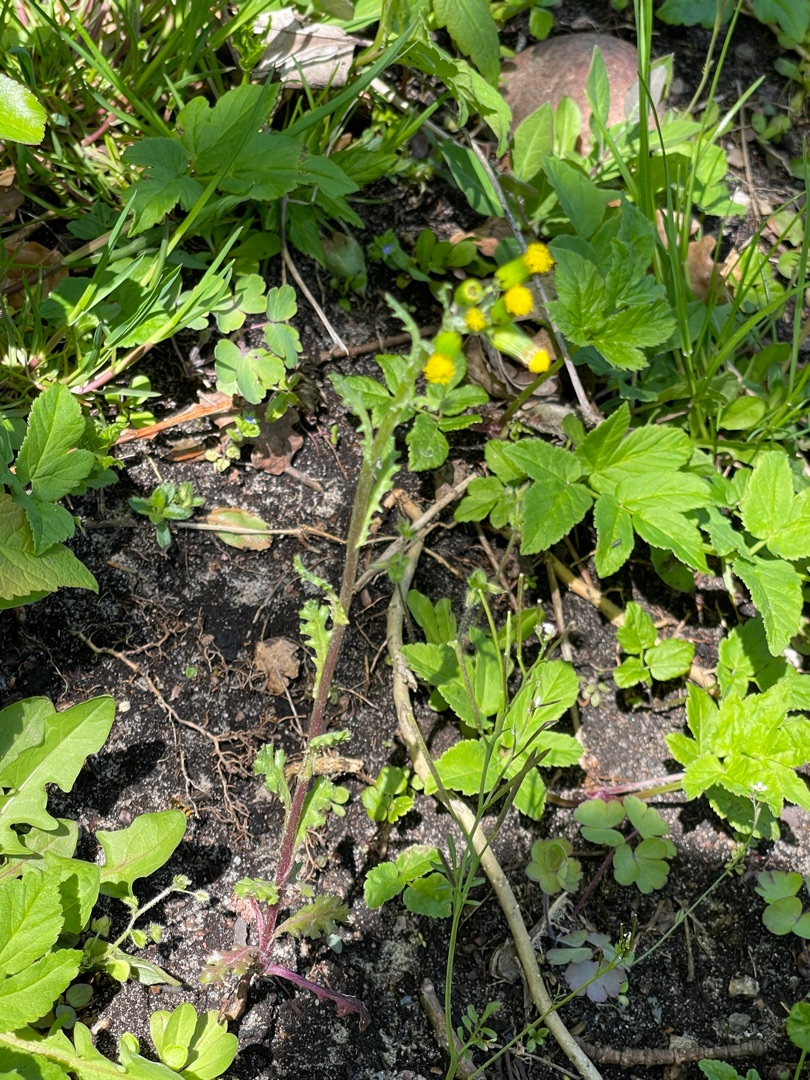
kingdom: Plantae
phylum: Tracheophyta
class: Magnoliopsida
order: Apiales
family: Apiaceae
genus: Aegopodium
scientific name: Aegopodium podagraria
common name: Skvalderkål
